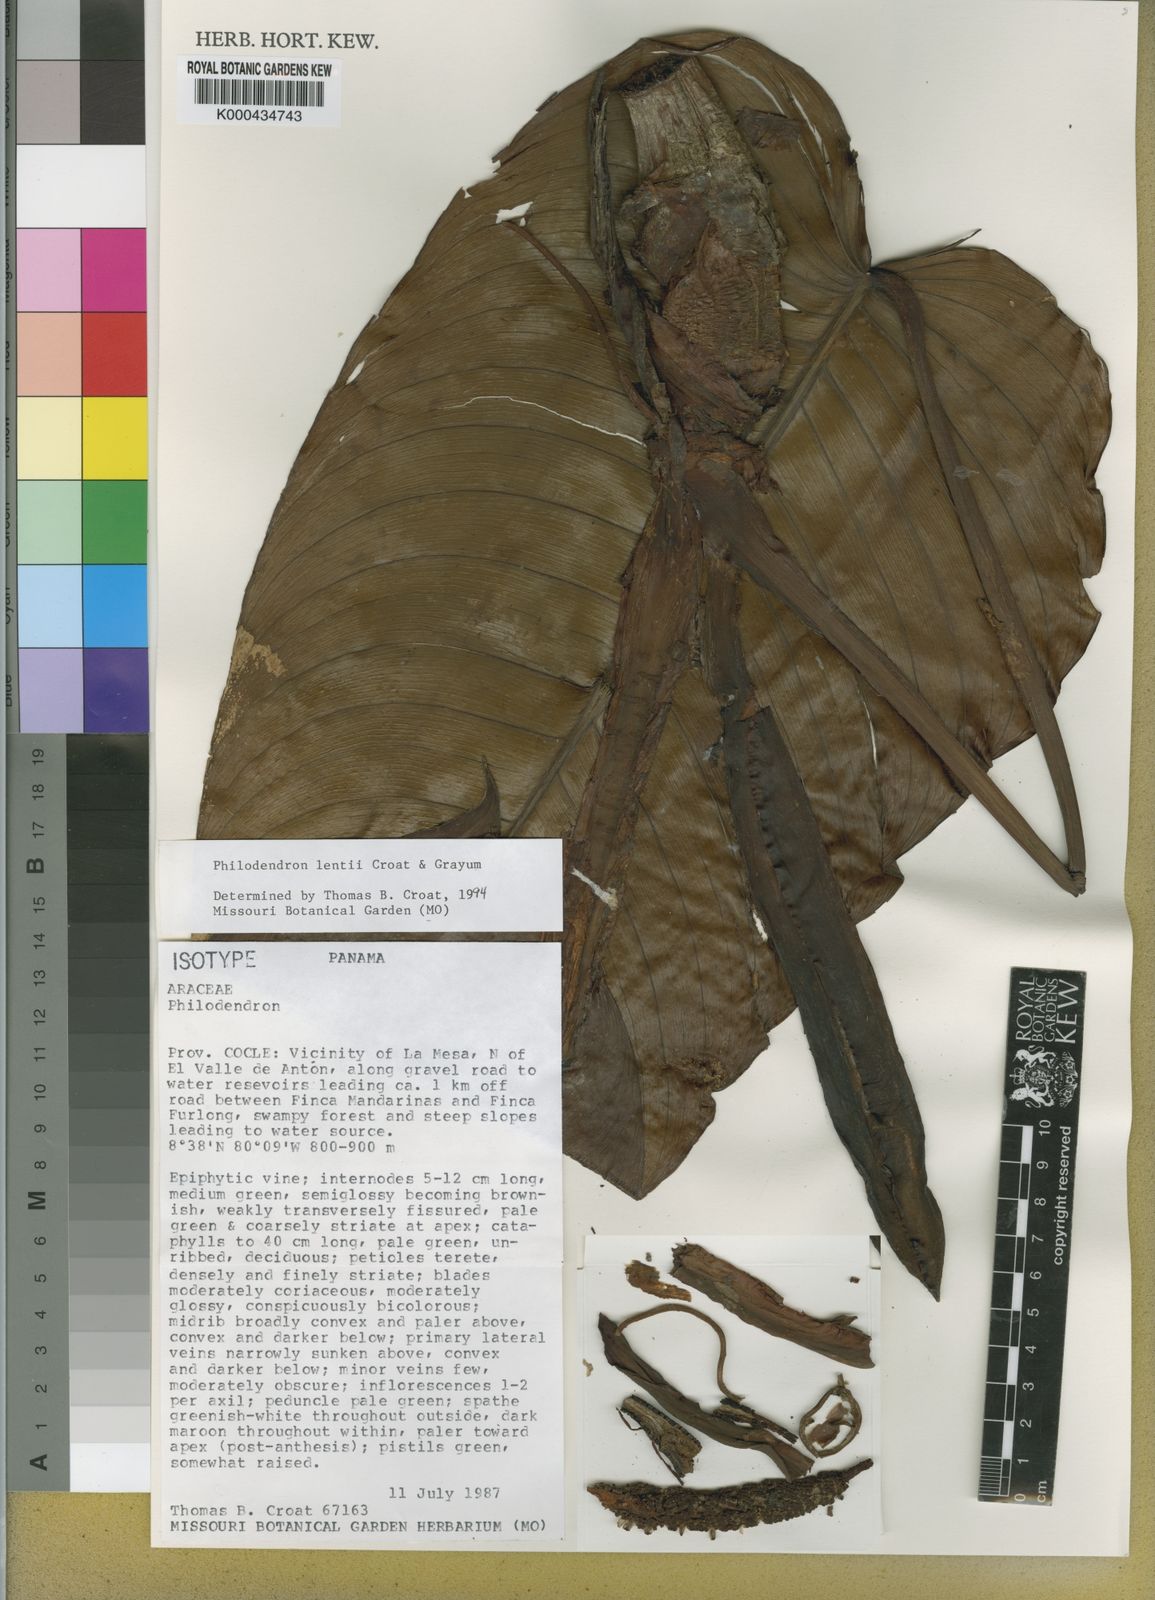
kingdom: Plantae
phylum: Tracheophyta
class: Liliopsida
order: Alismatales
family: Araceae
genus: Philodendron
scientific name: Philodendron lentii
